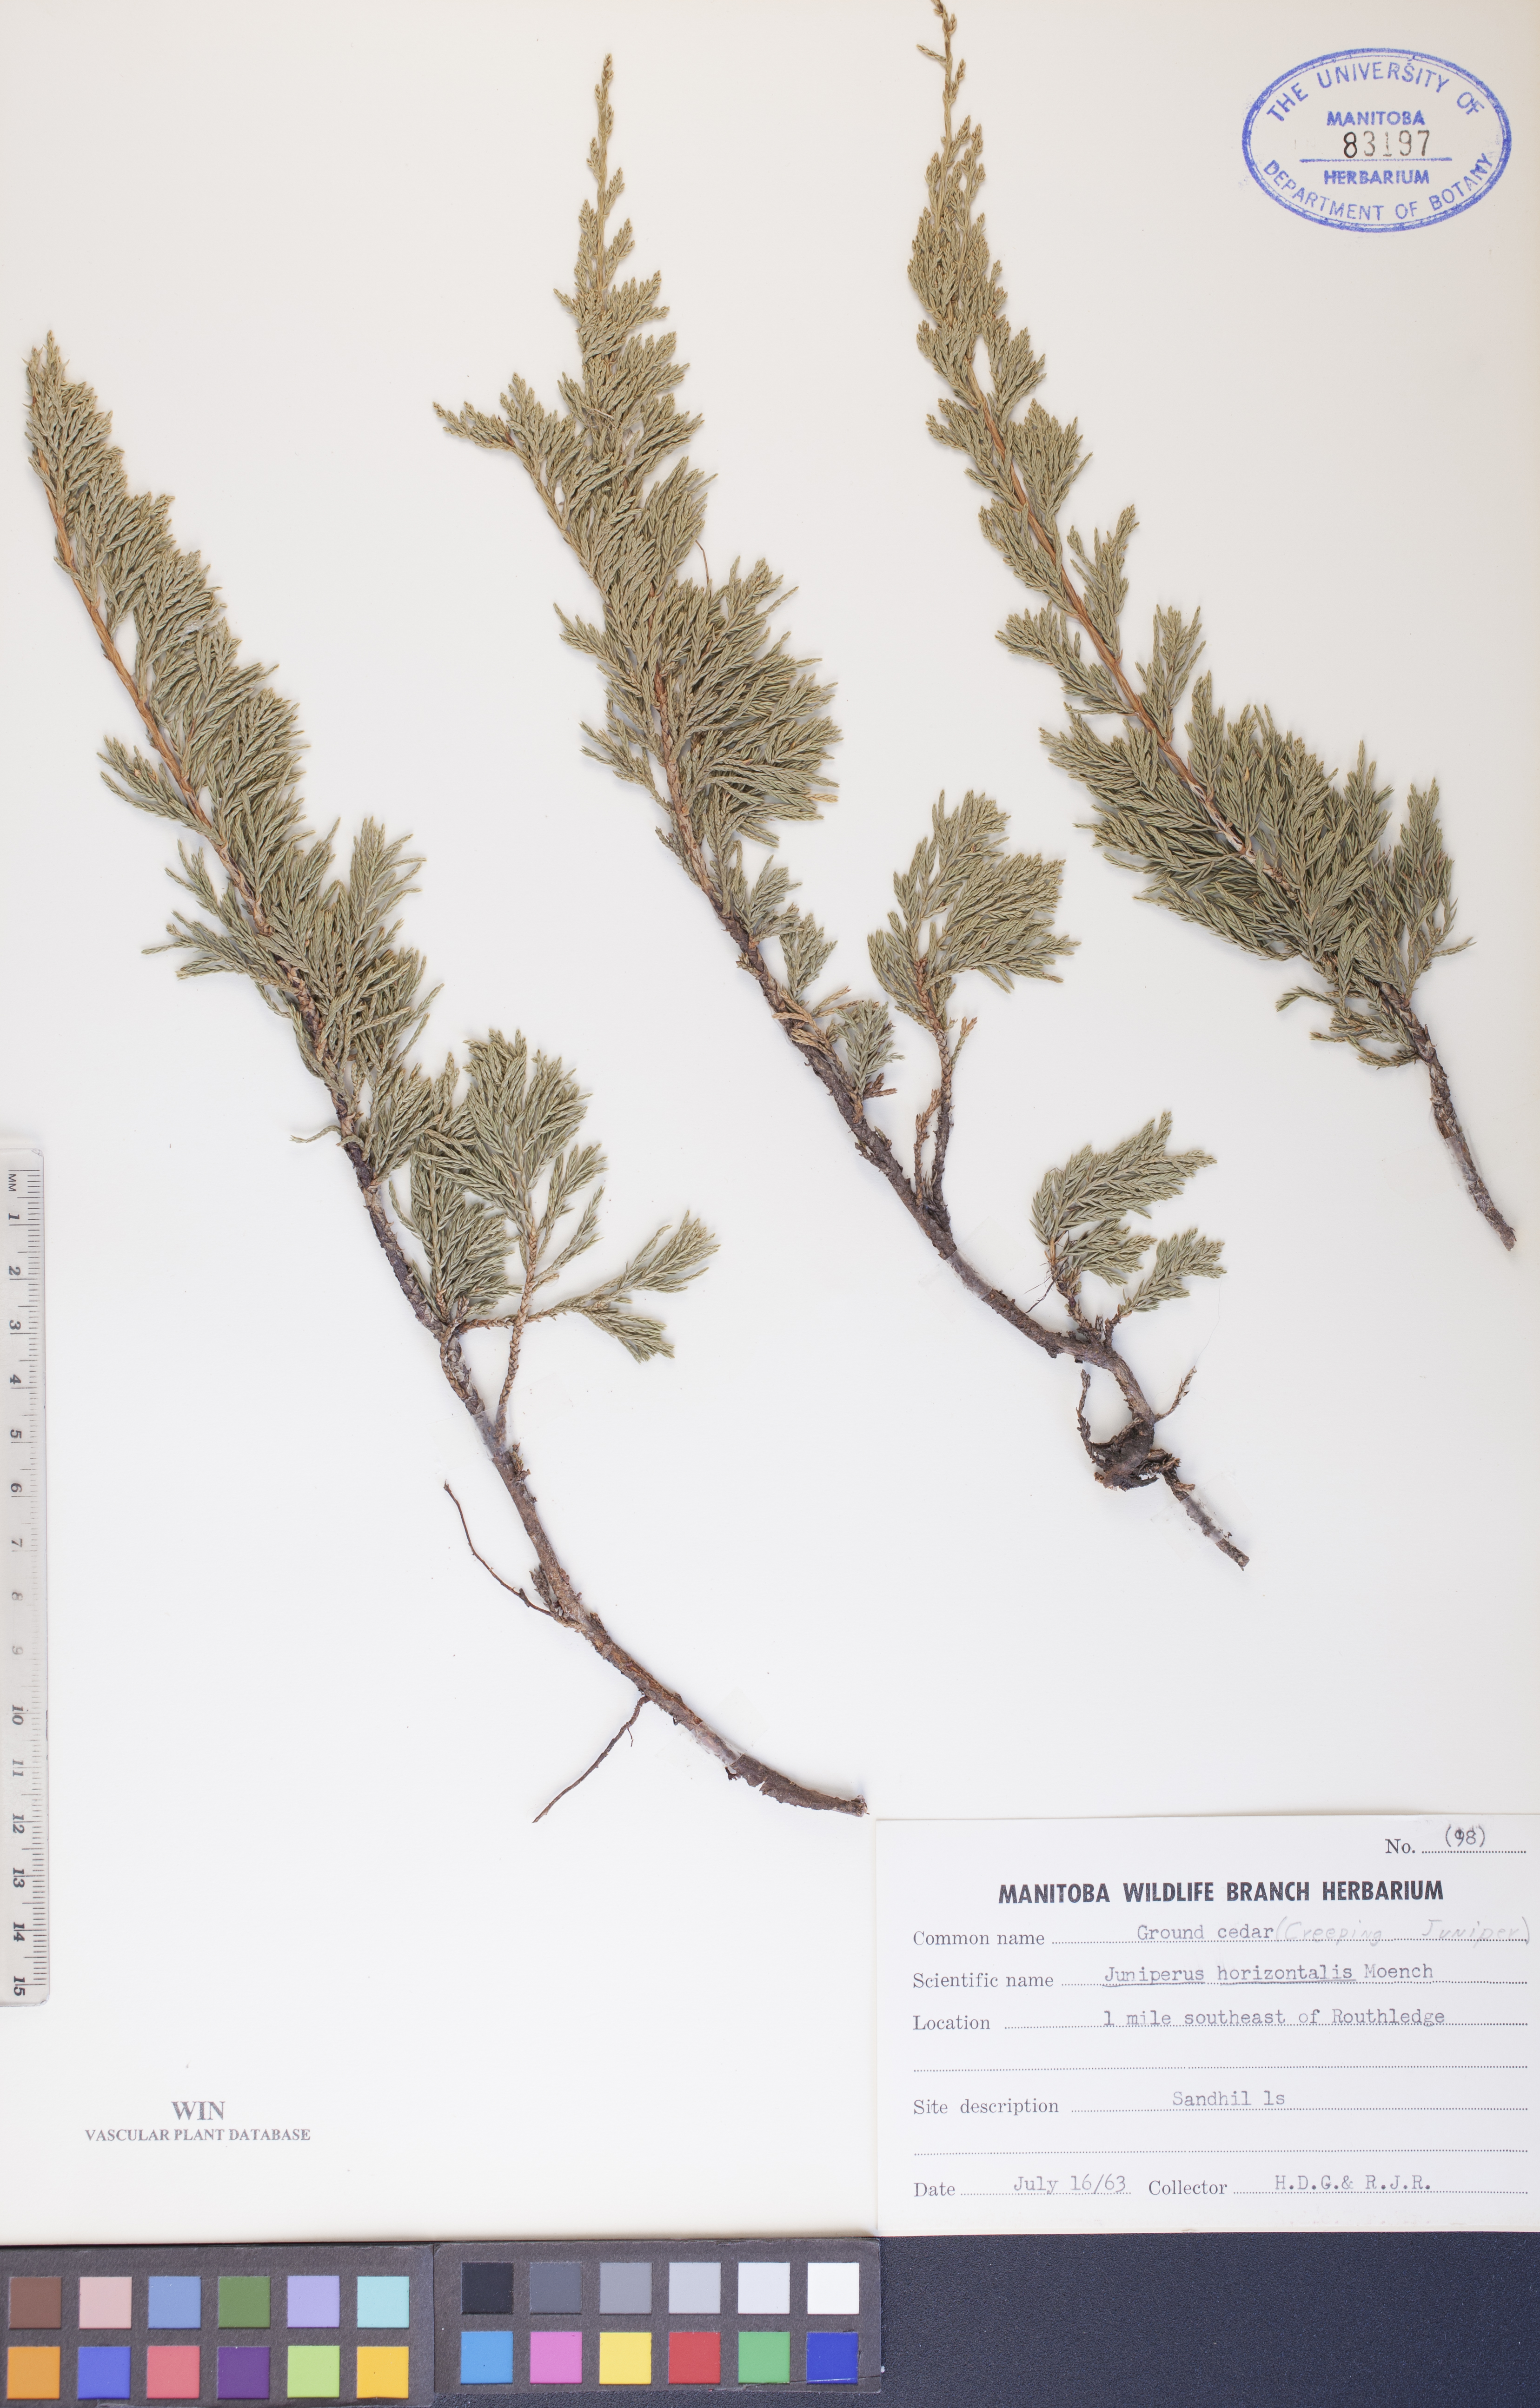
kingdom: Plantae
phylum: Tracheophyta
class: Pinopsida
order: Pinales
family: Cupressaceae
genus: Juniperus
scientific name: Juniperus horizontalis
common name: Creeping juniper
